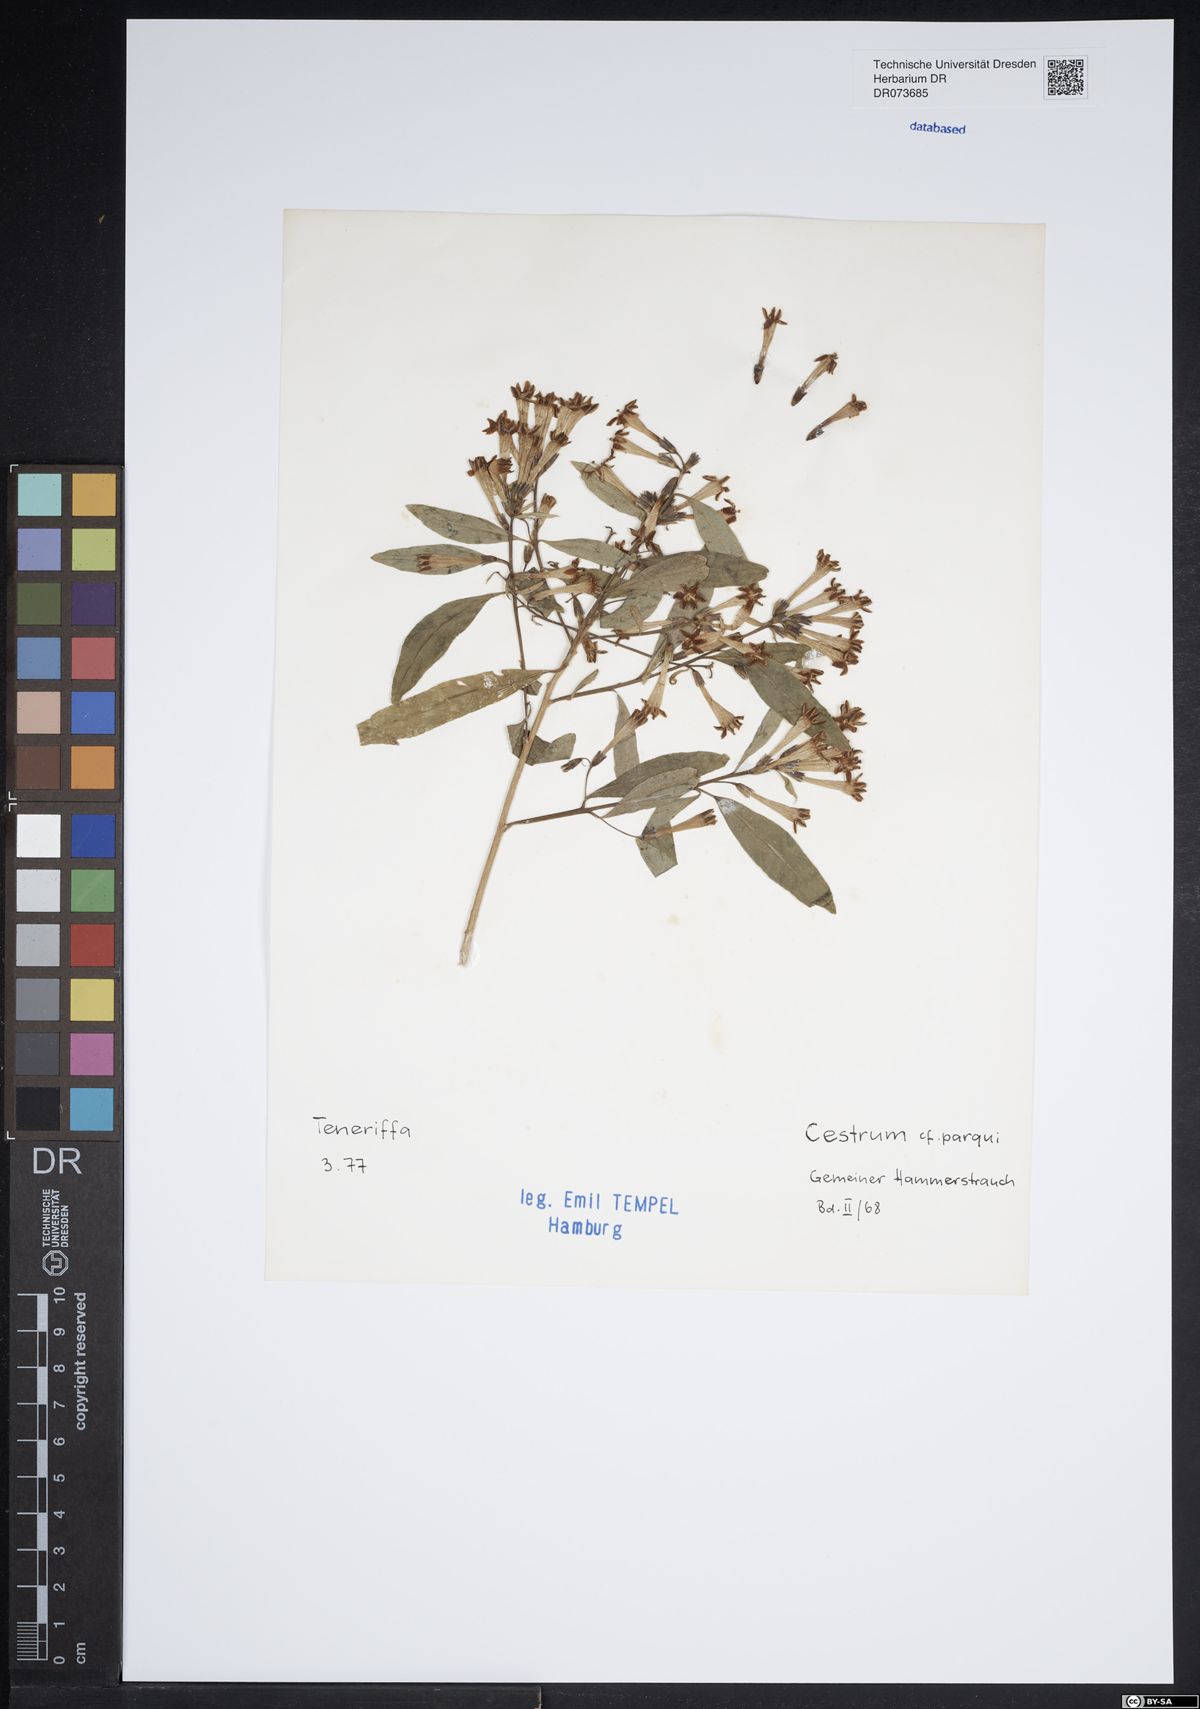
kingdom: Plantae
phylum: Tracheophyta
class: Magnoliopsida
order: Solanales
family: Solanaceae
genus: Cestrum
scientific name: Cestrum thyrsoideum
